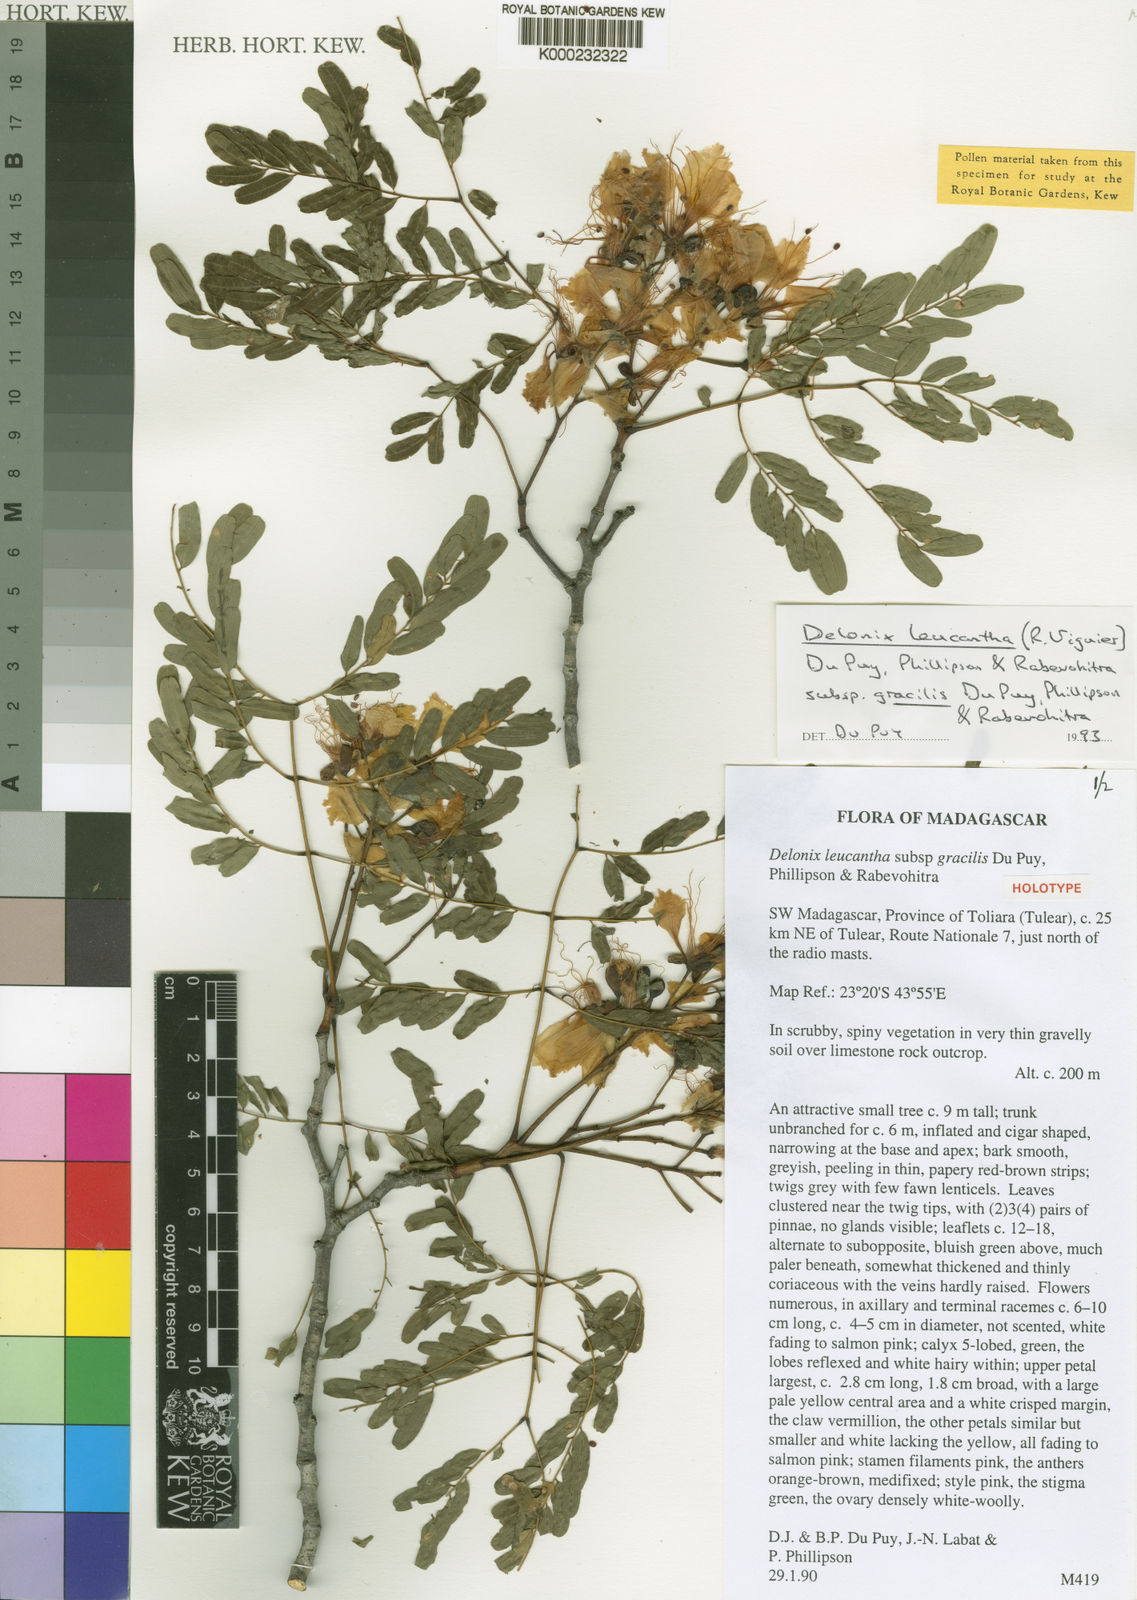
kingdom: Plantae
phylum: Tracheophyta
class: Magnoliopsida
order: Fabales
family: Fabaceae
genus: Delonix
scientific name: Delonix
